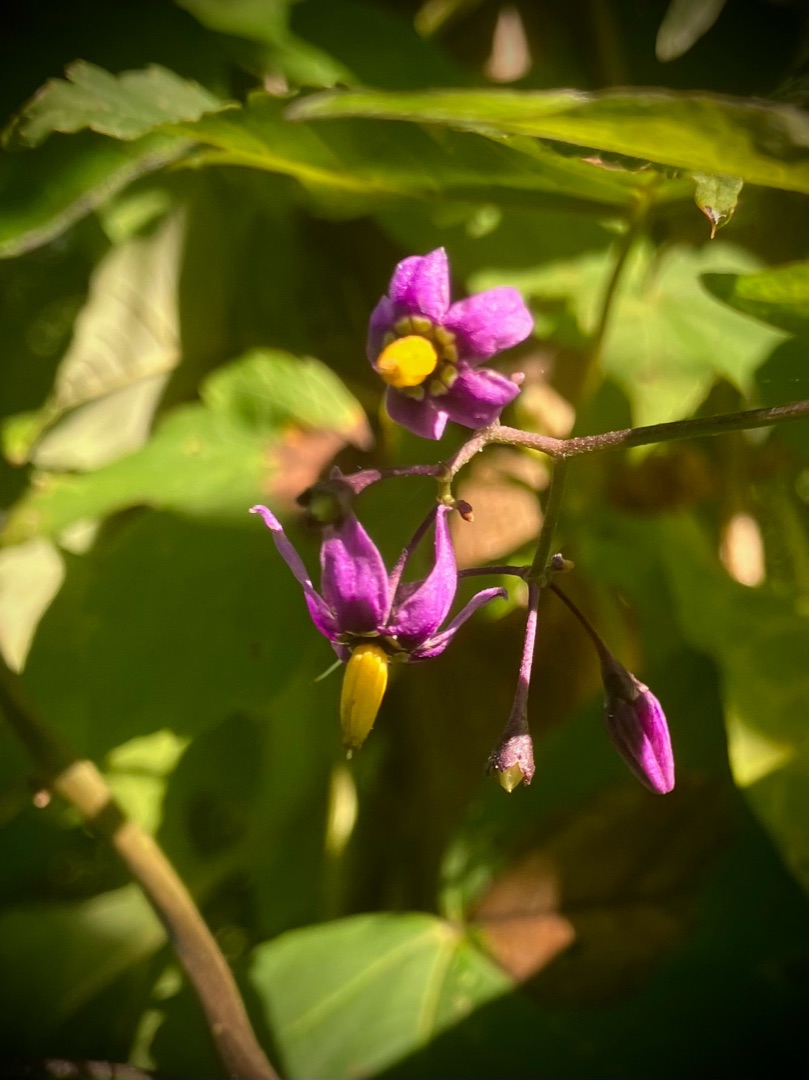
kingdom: Plantae
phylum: Tracheophyta
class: Magnoliopsida
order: Solanales
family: Solanaceae
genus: Solanum
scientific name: Solanum dulcamara
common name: Bittersød natskygge
